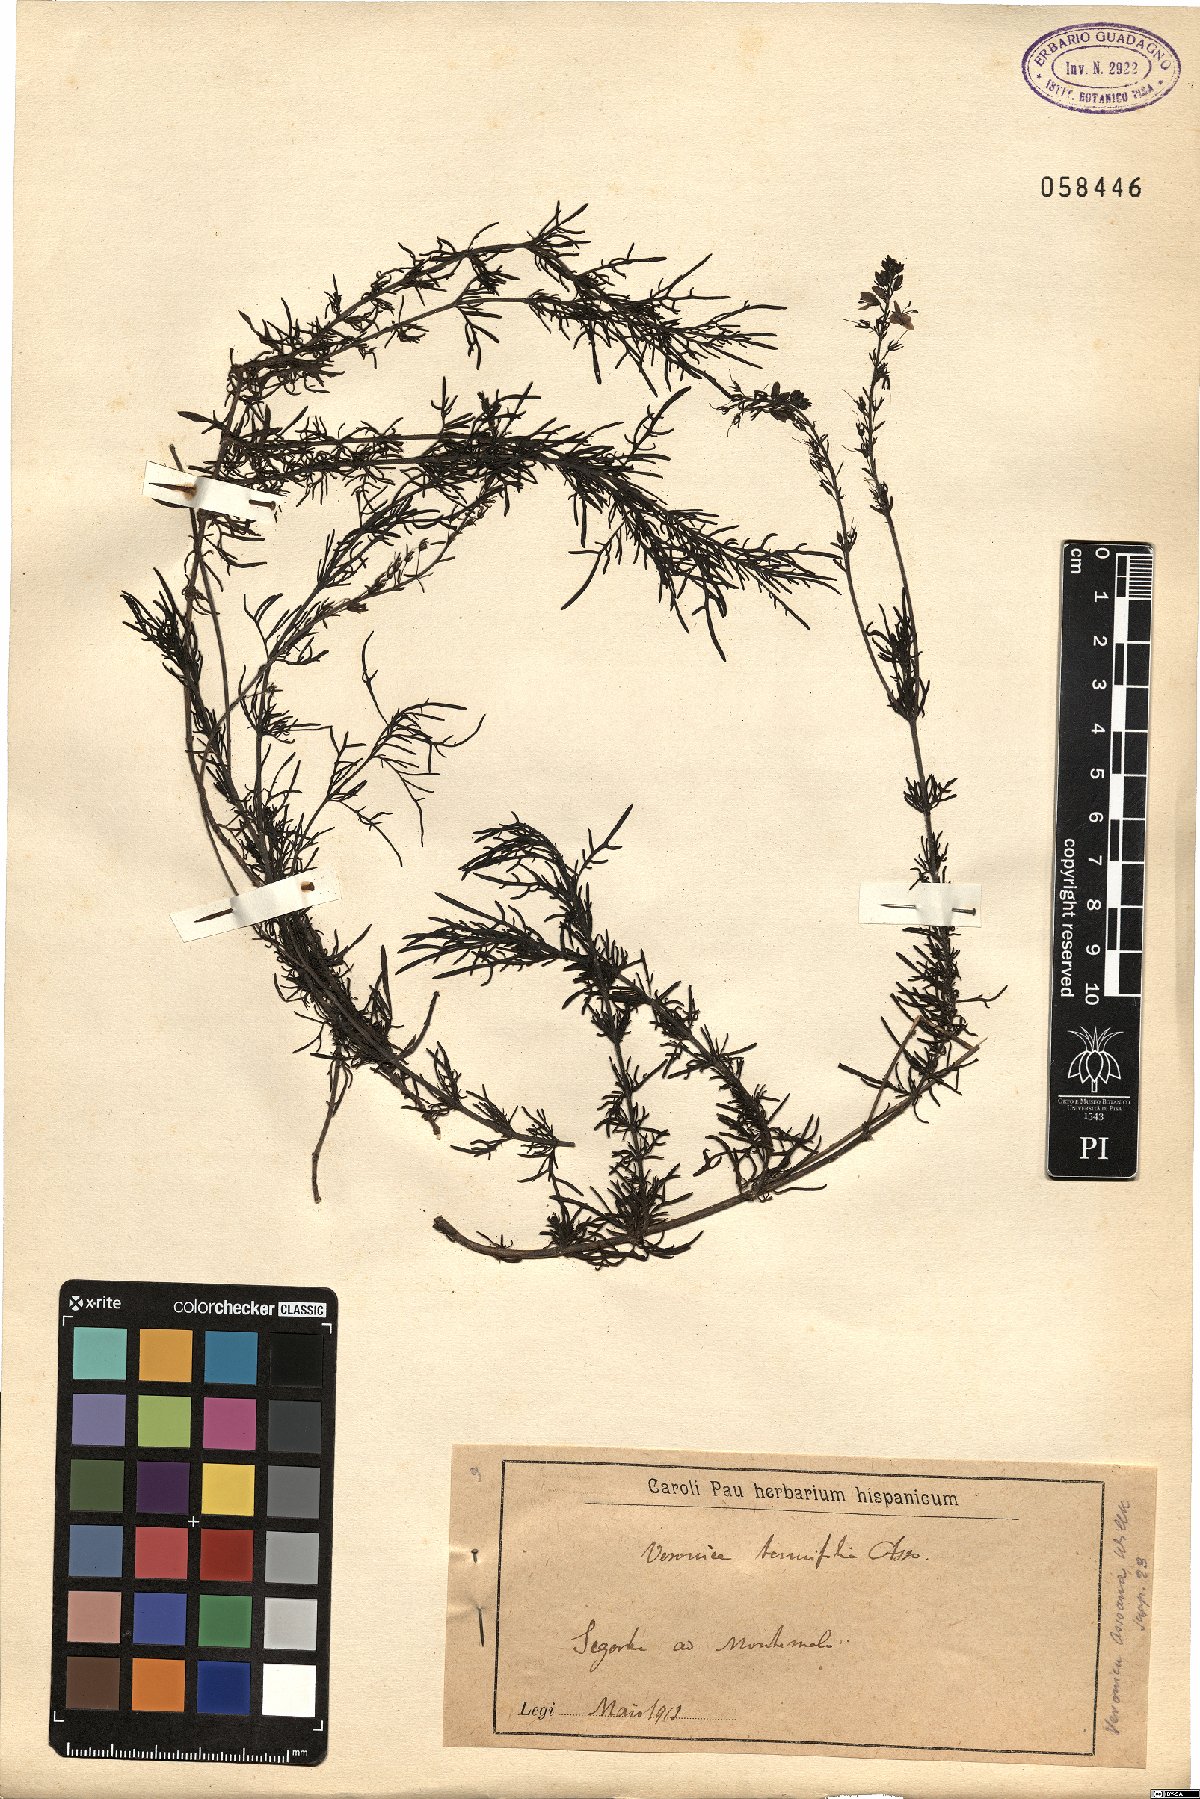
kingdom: Plantae
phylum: Tracheophyta
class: Magnoliopsida
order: Lamiales
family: Plantaginaceae
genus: Veronica
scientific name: Veronica tenuifolia
